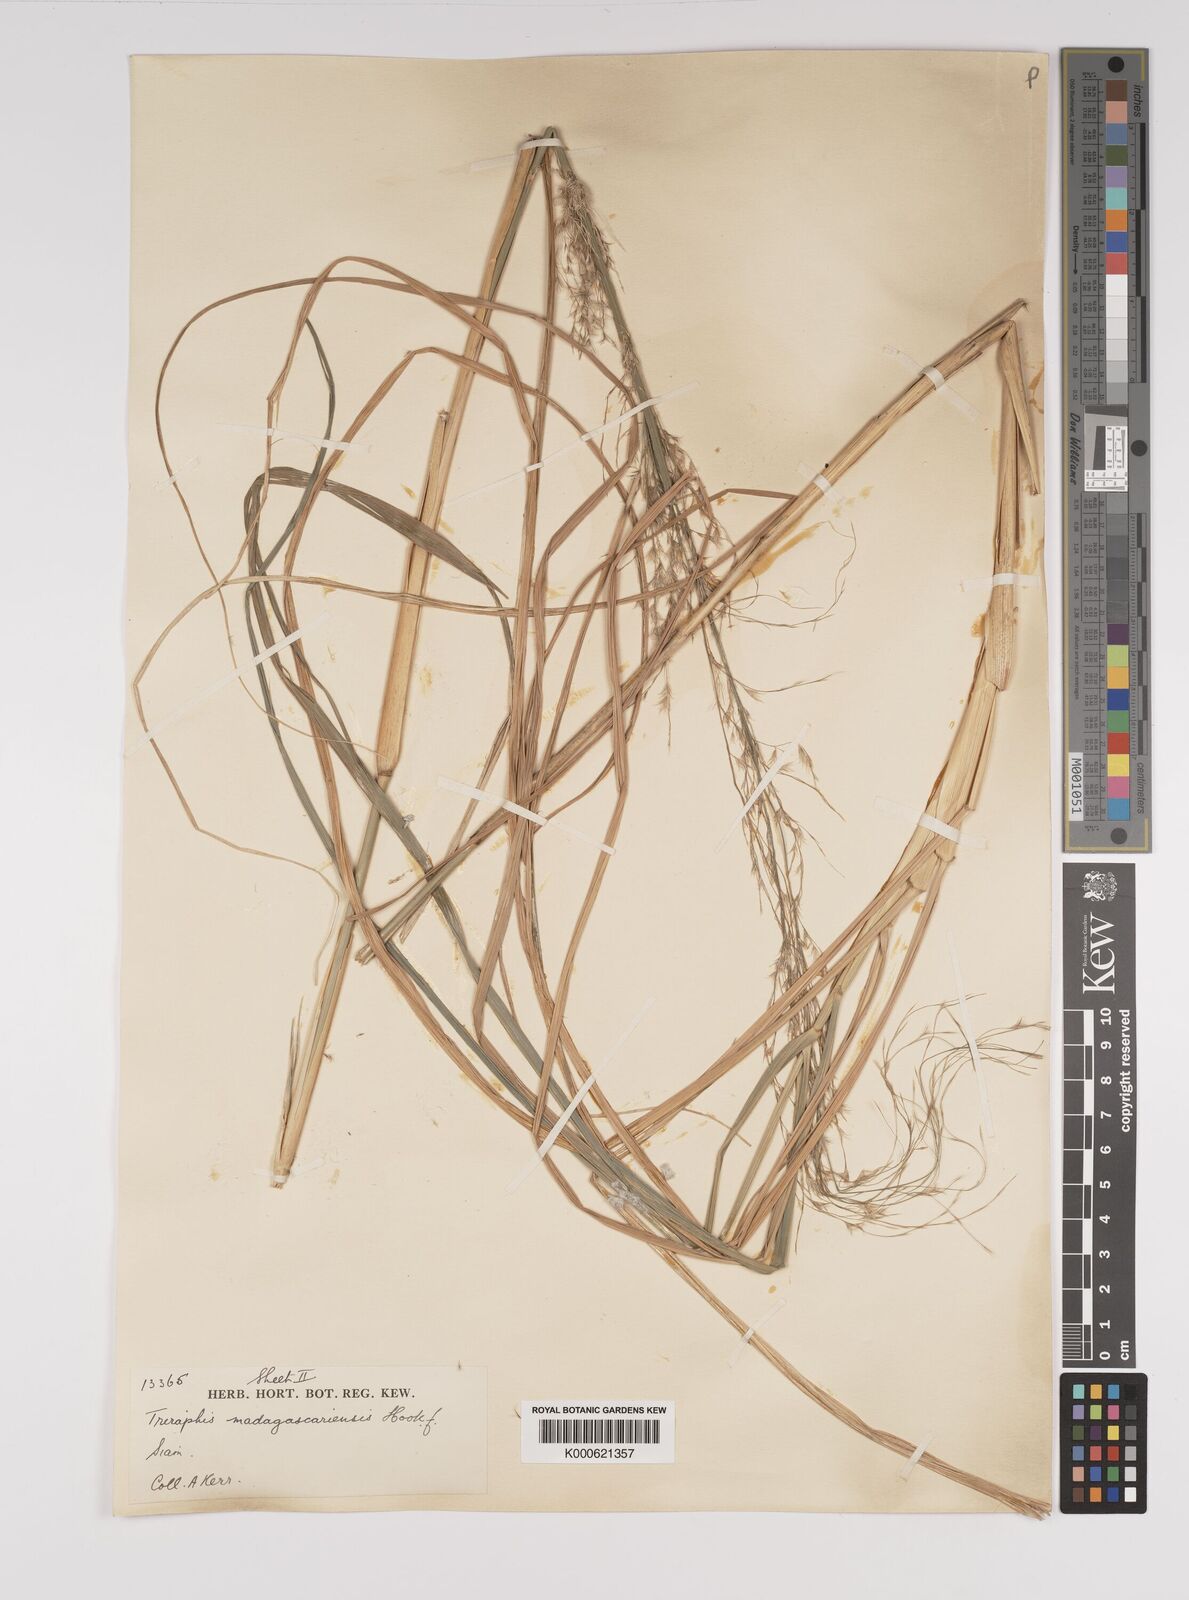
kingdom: Plantae
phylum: Tracheophyta
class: Liliopsida
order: Poales
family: Poaceae
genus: Neyraudia
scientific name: Neyraudia reynaudiana
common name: Silkreed
